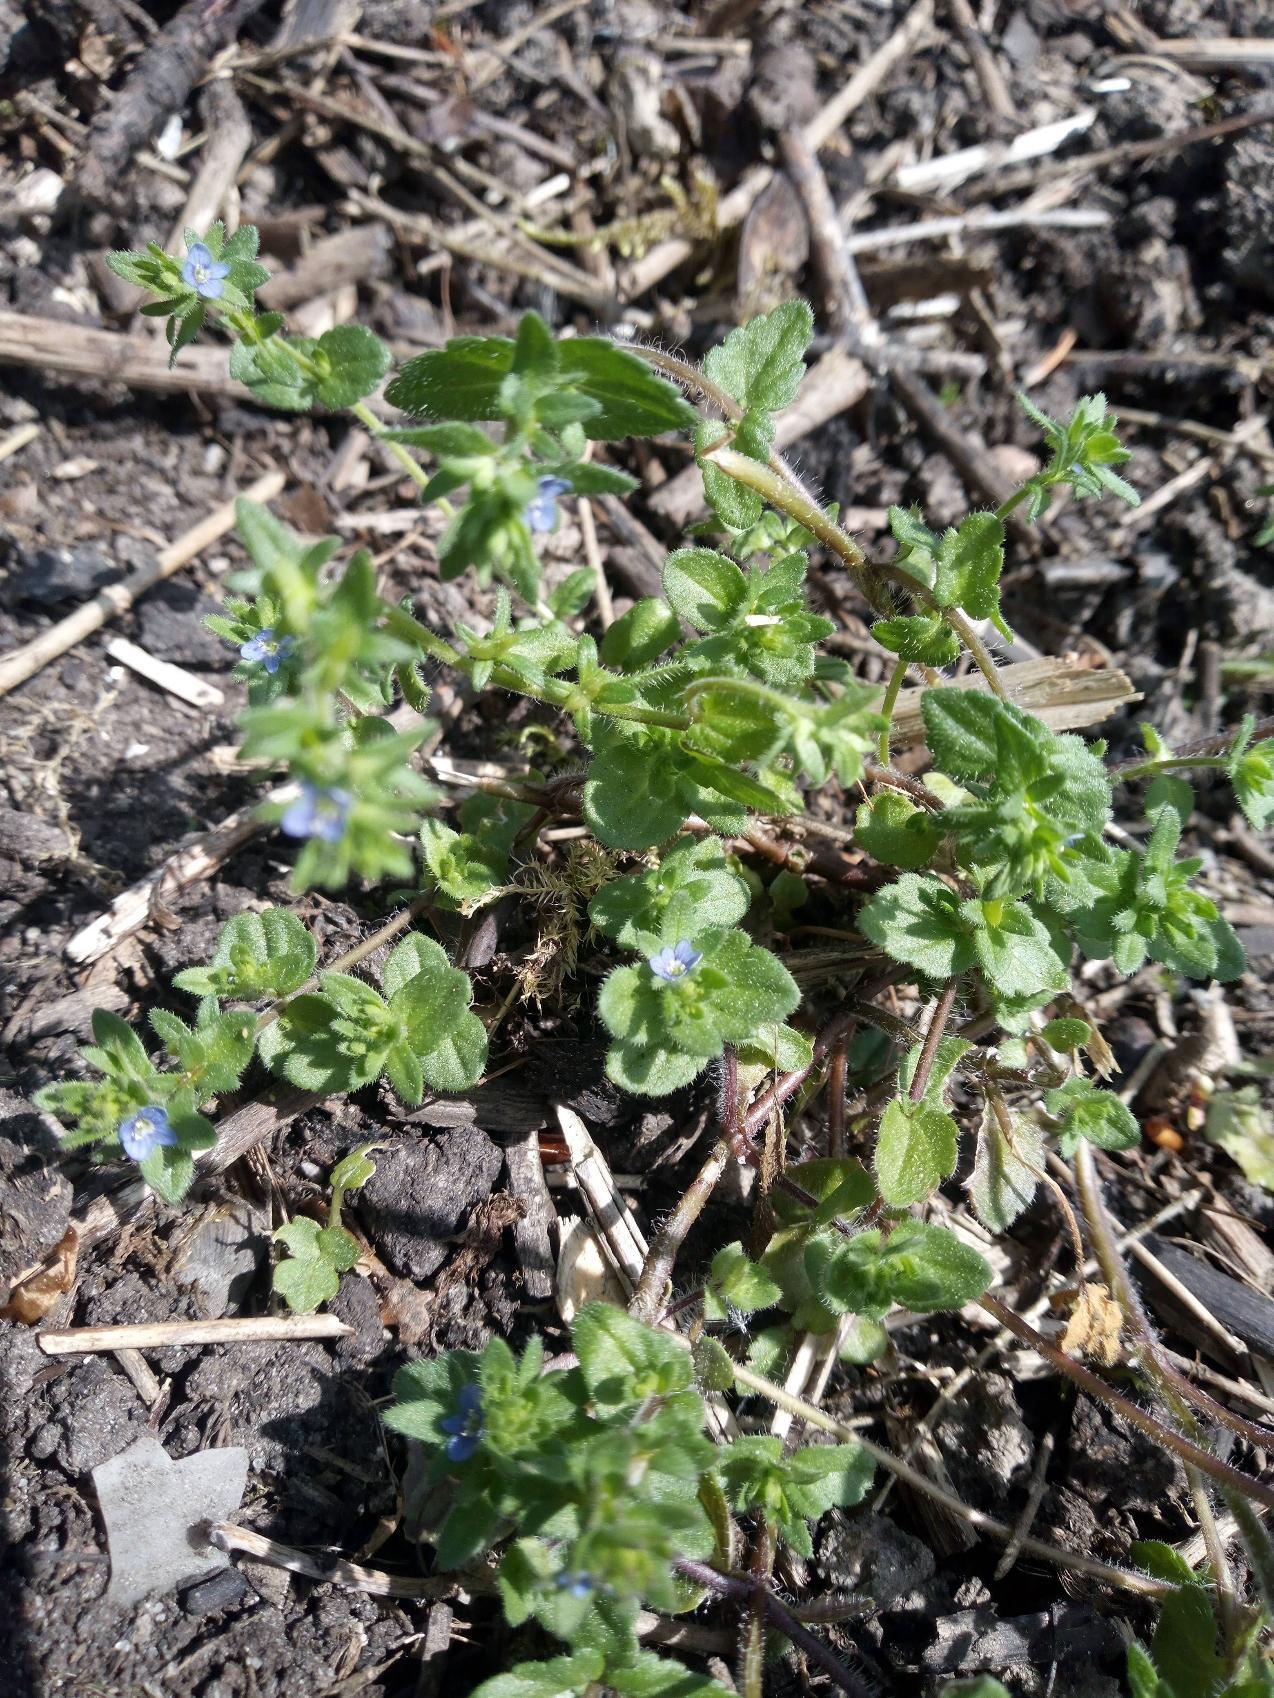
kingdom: Plantae
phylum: Tracheophyta
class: Magnoliopsida
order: Lamiales
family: Plantaginaceae
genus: Veronica
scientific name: Veronica arvensis
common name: Mark-ærenpris
